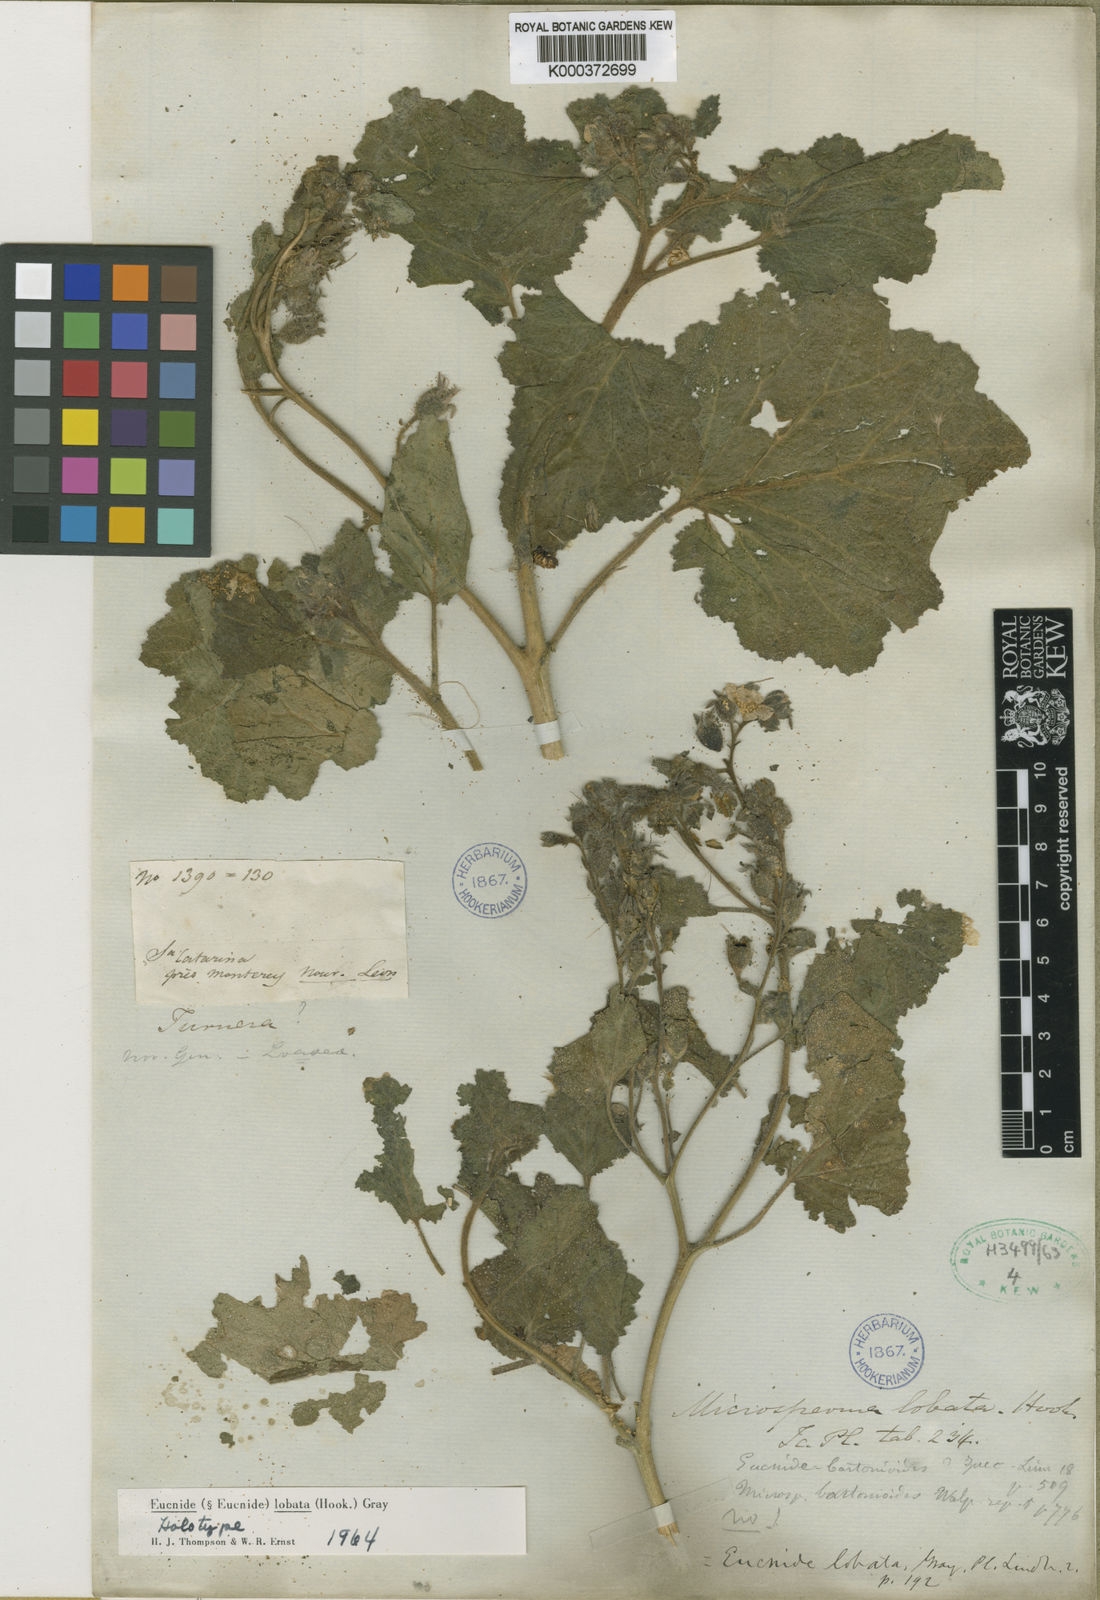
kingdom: Plantae
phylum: Tracheophyta
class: Magnoliopsida
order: Cornales
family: Loasaceae
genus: Eucnide
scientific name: Eucnide lobata
